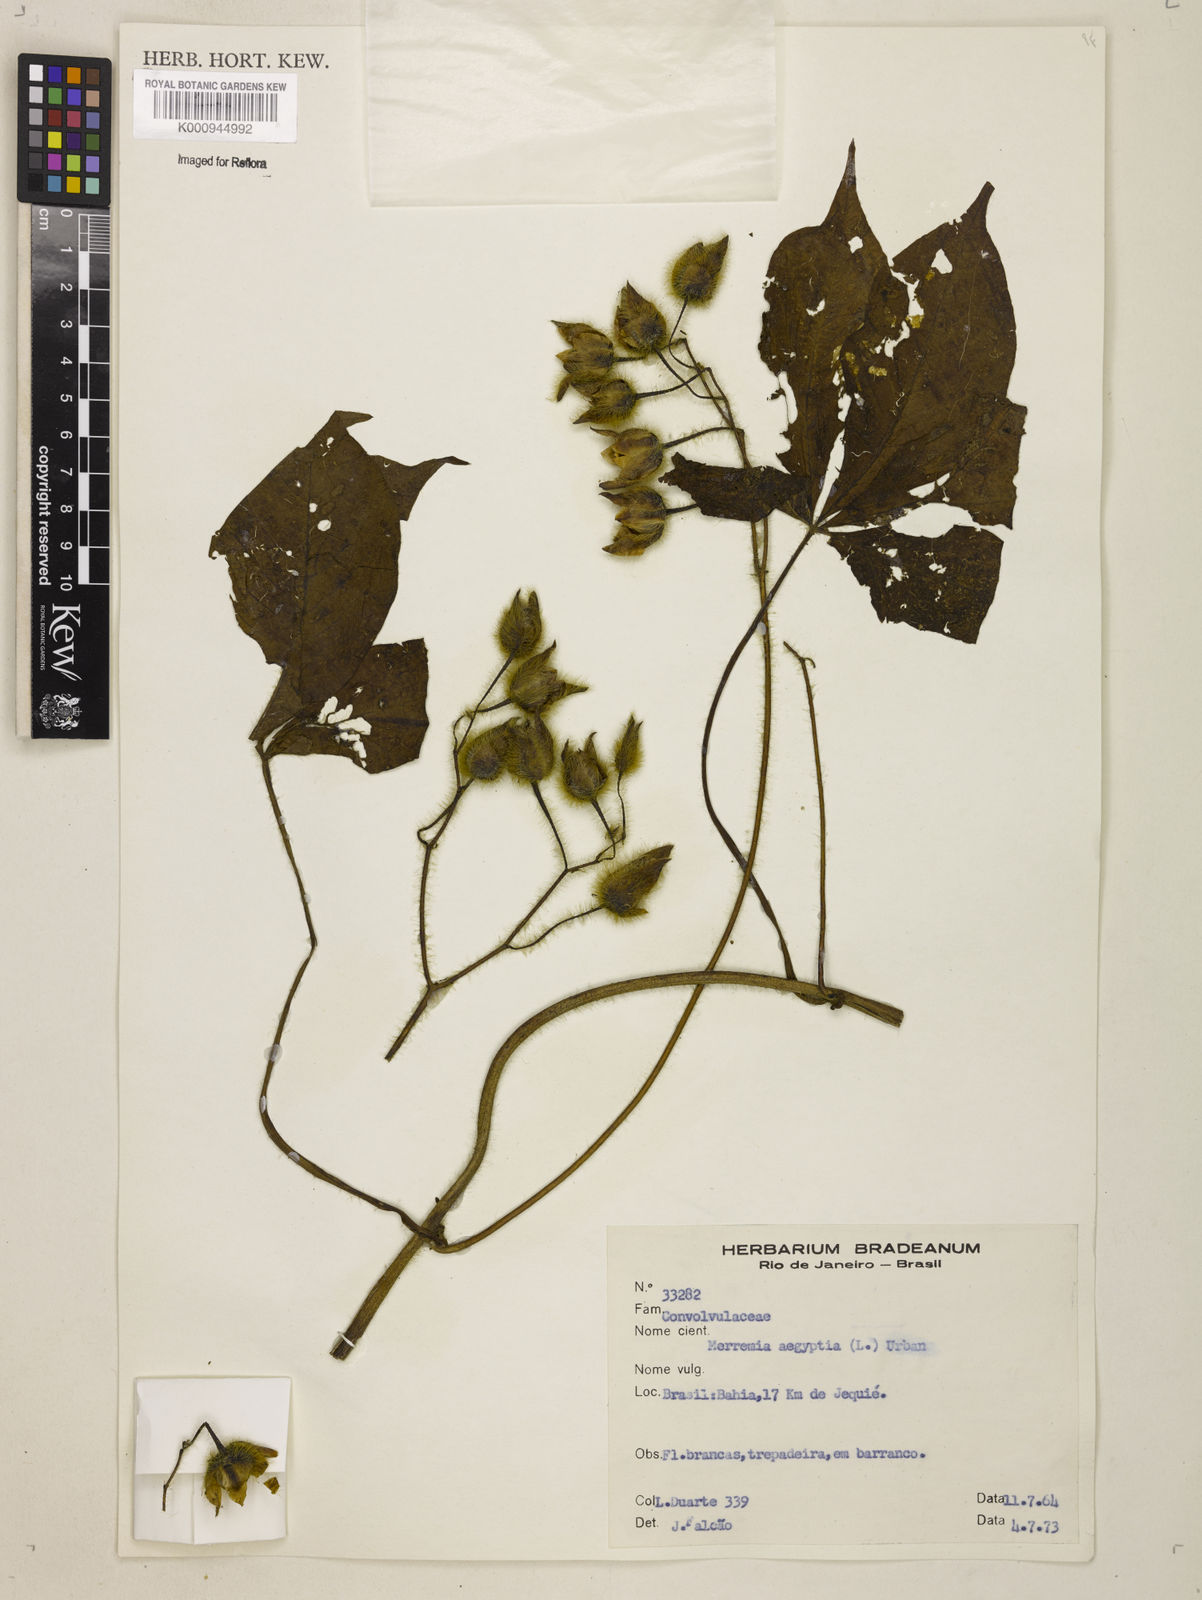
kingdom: Plantae
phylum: Tracheophyta
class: Magnoliopsida
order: Solanales
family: Convolvulaceae
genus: Distimake
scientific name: Distimake aegyptius
